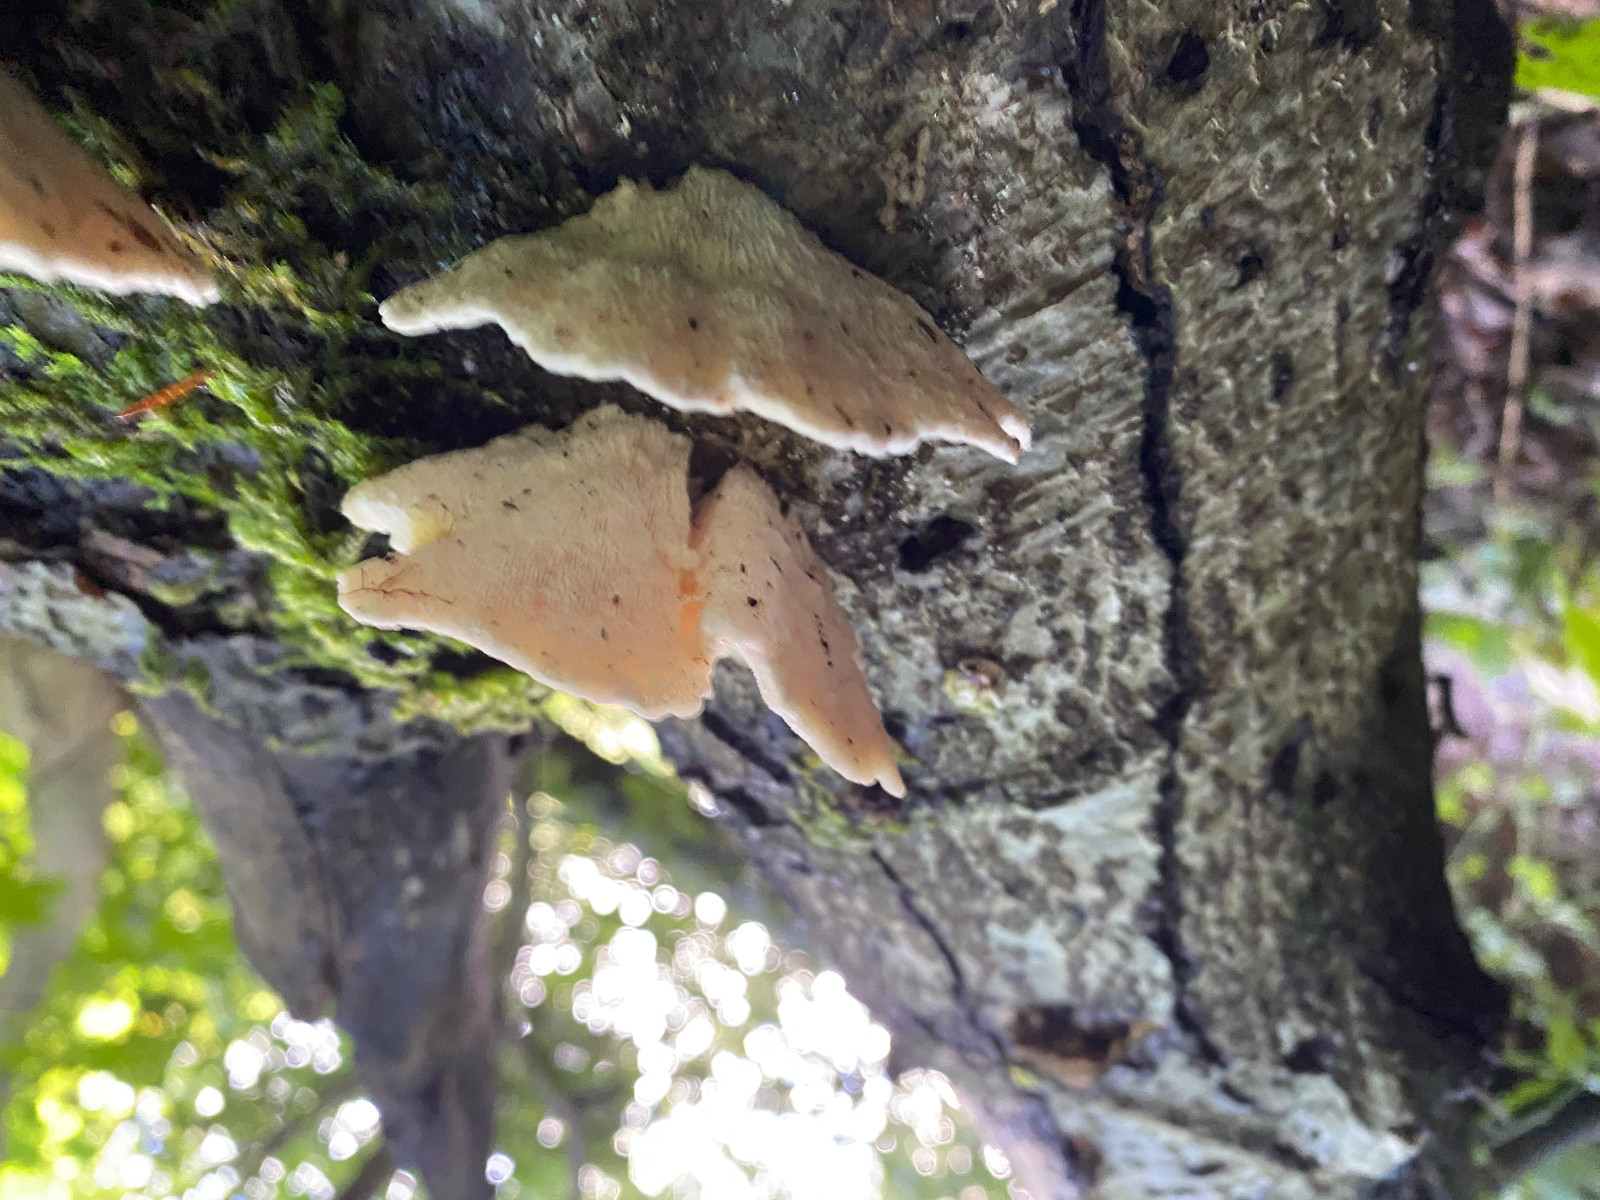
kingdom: Fungi
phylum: Basidiomycota
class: Agaricomycetes
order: Polyporales
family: Polyporaceae
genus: Trametes
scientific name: Trametes gibbosa
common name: puklet læderporesvamp
